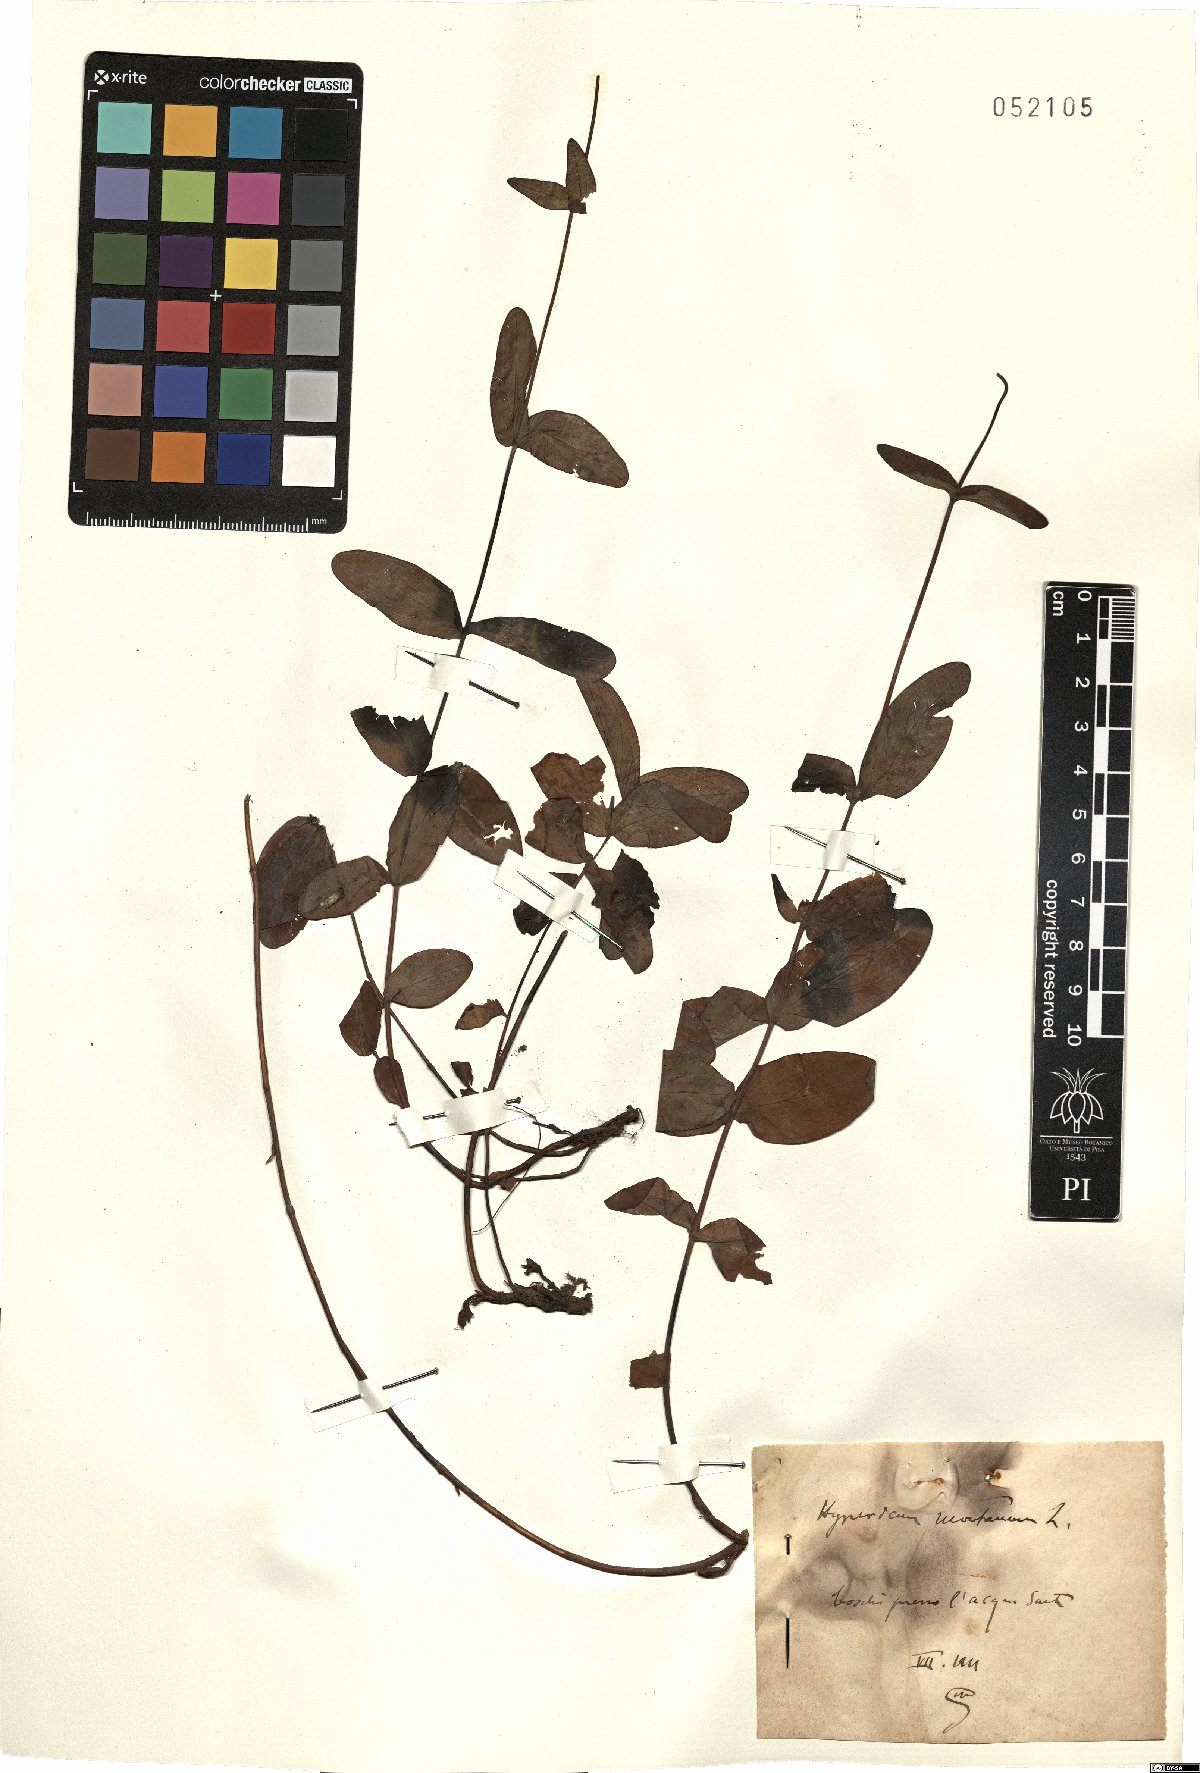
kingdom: Plantae
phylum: Tracheophyta
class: Magnoliopsida
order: Malpighiales
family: Hypericaceae
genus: Hypericum
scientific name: Hypericum montanum
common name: Pale st. john's-wort
